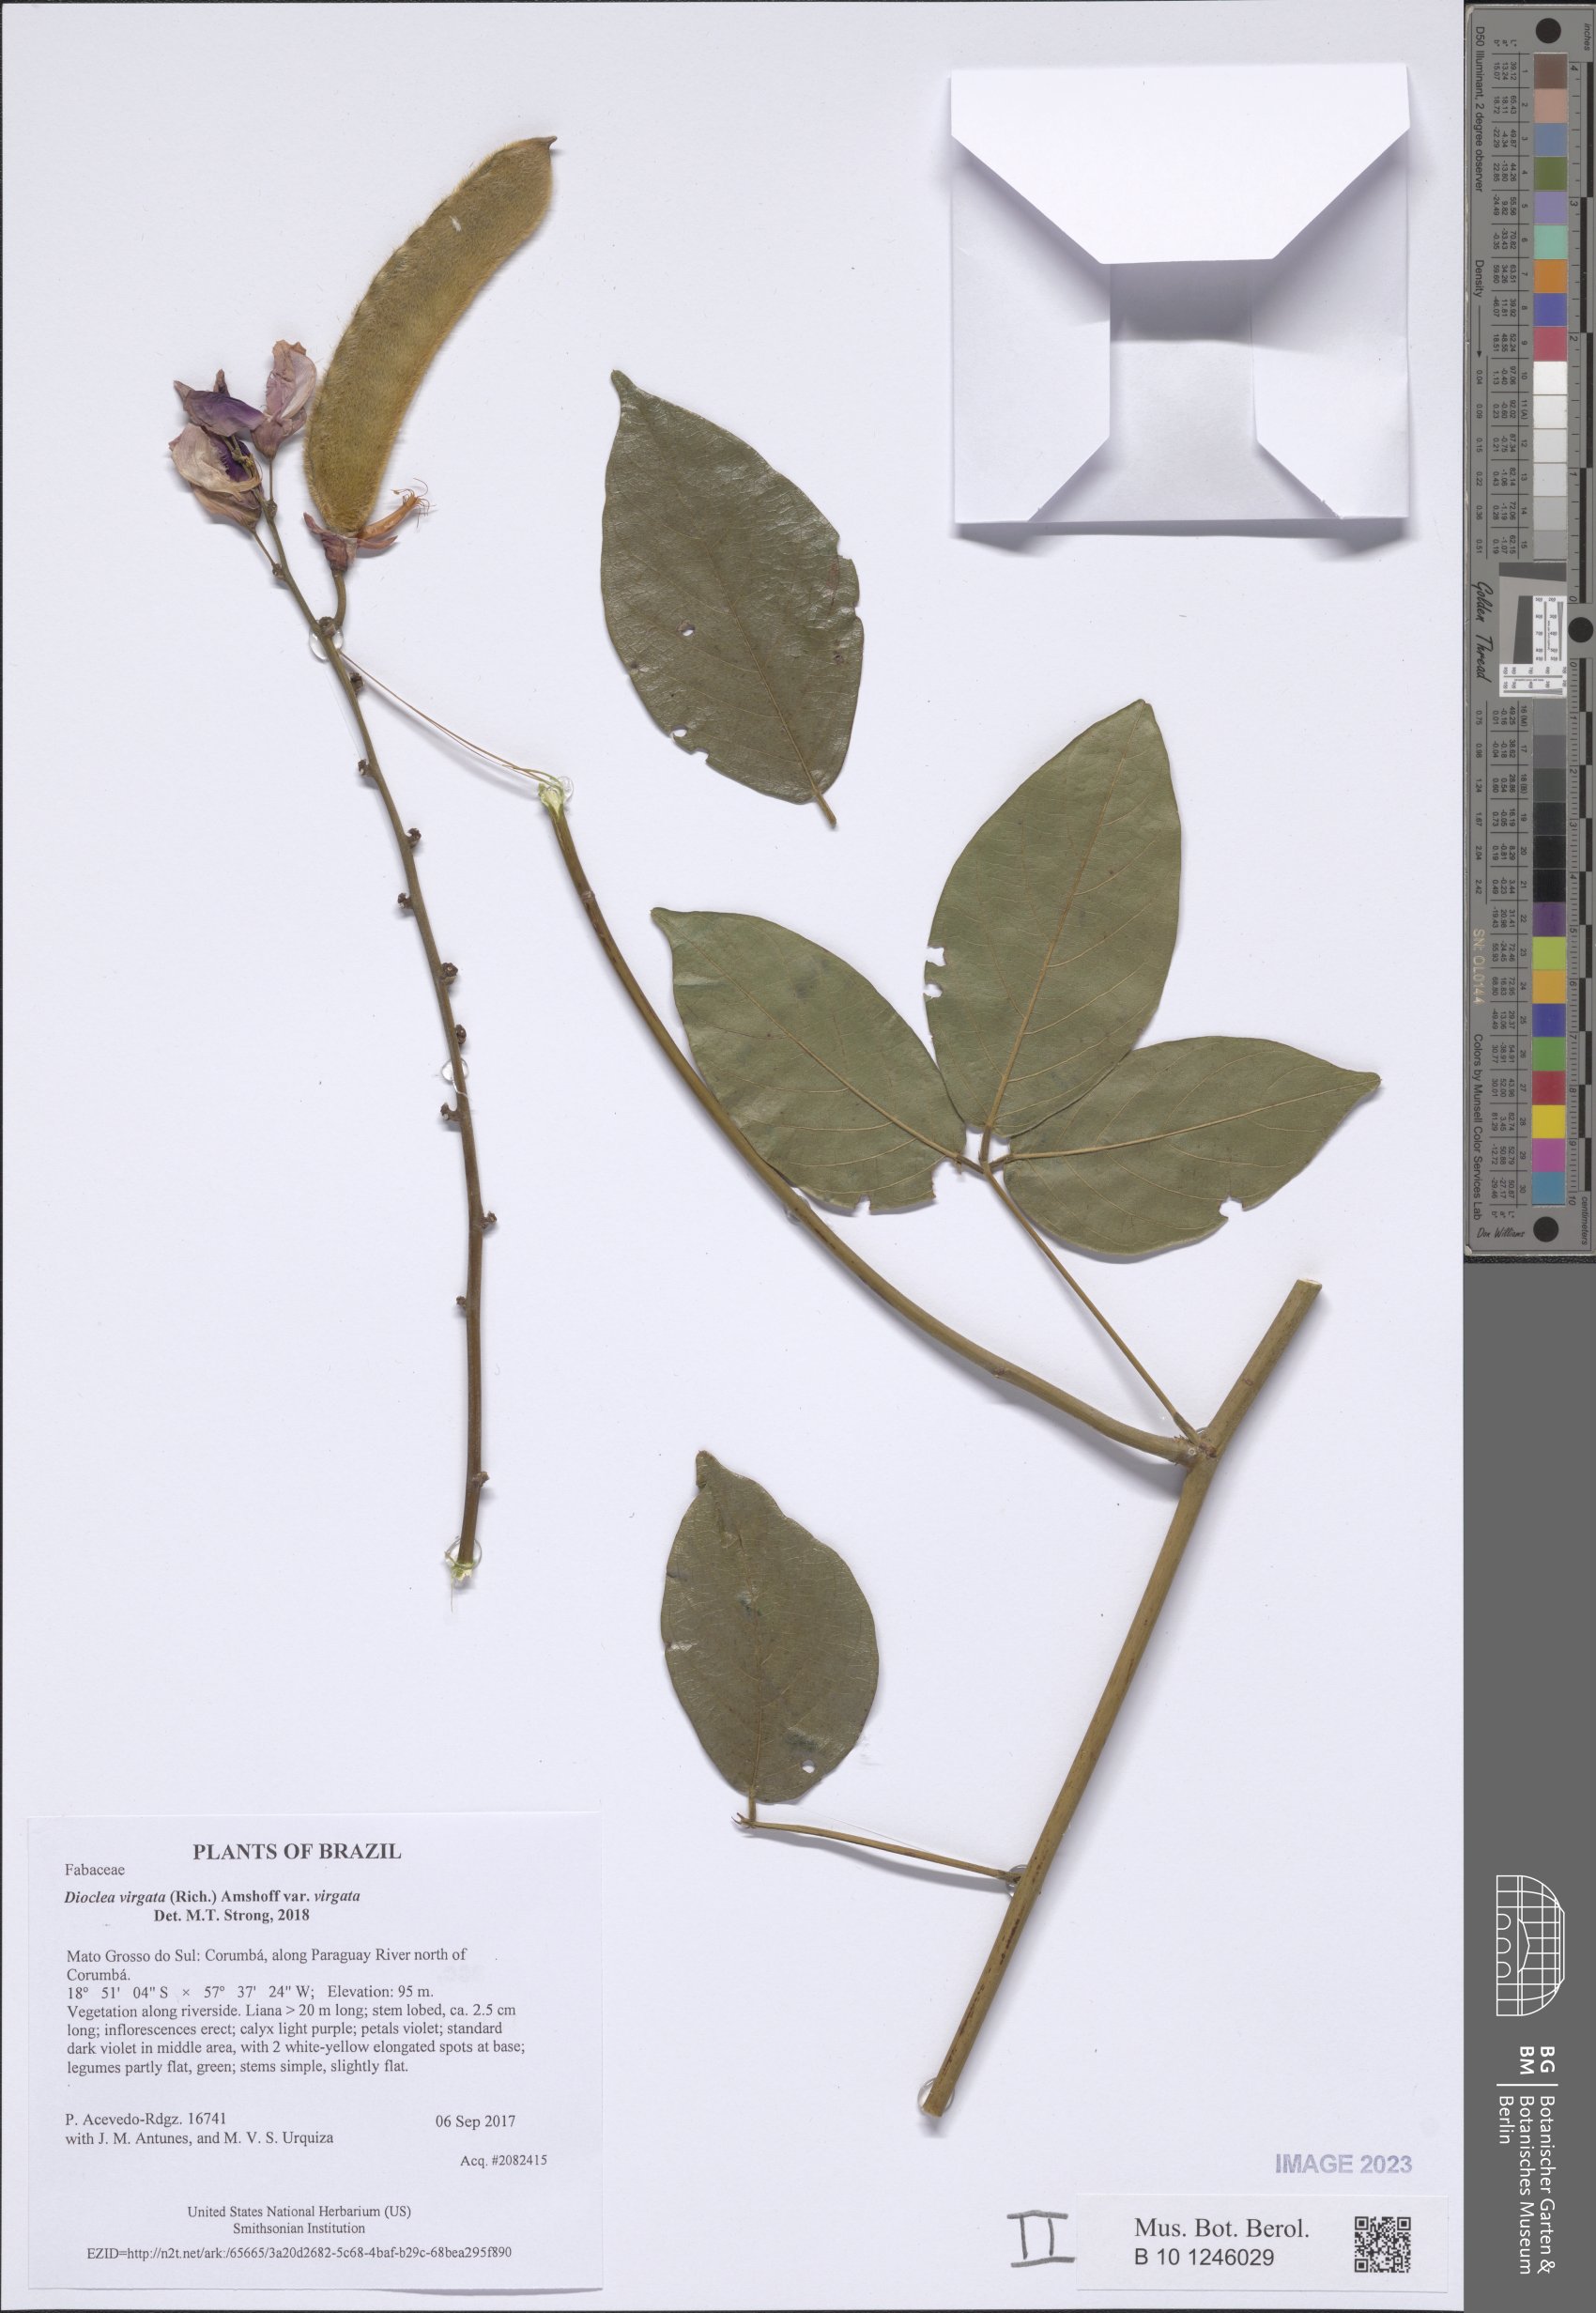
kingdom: Plantae
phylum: Tracheophyta
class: Magnoliopsida
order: Fabales
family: Fabaceae
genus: Dioclea
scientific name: Dioclea virgata
